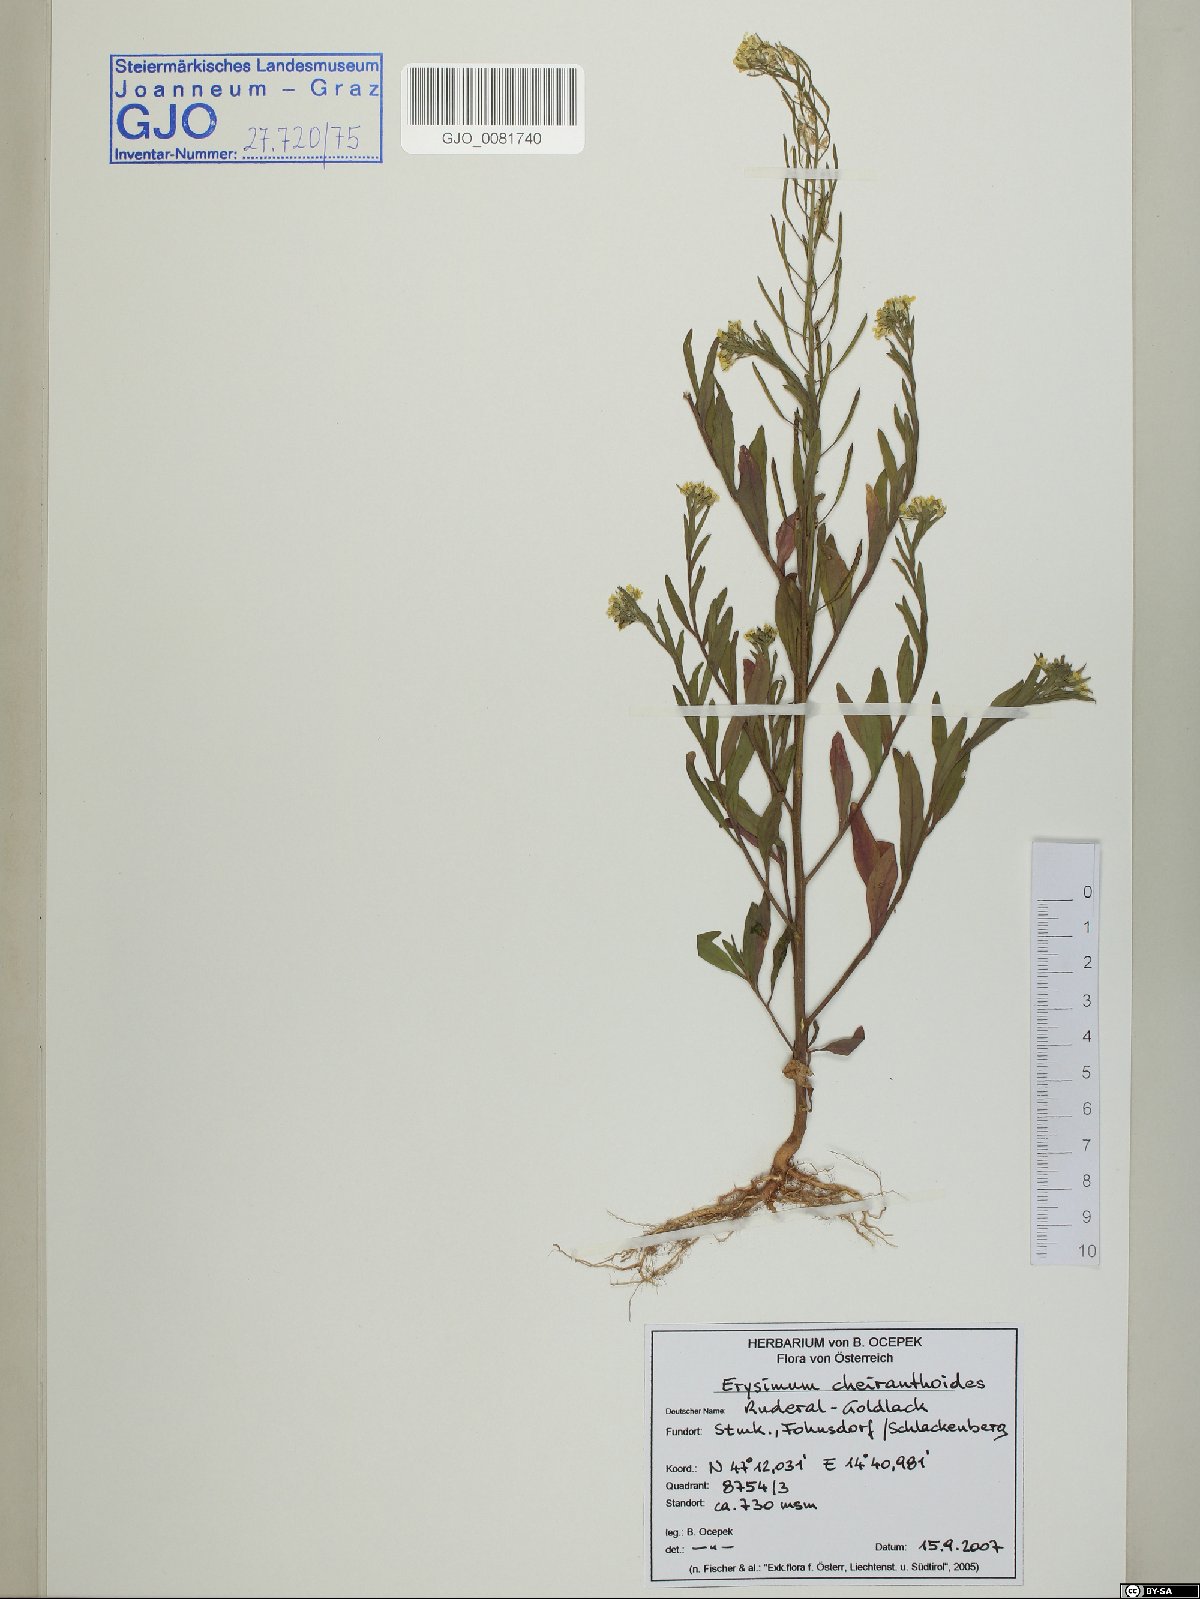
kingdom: Plantae
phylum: Tracheophyta
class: Magnoliopsida
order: Brassicales
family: Brassicaceae
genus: Erysimum
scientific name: Erysimum cheiranthoides
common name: Treacle mustard
